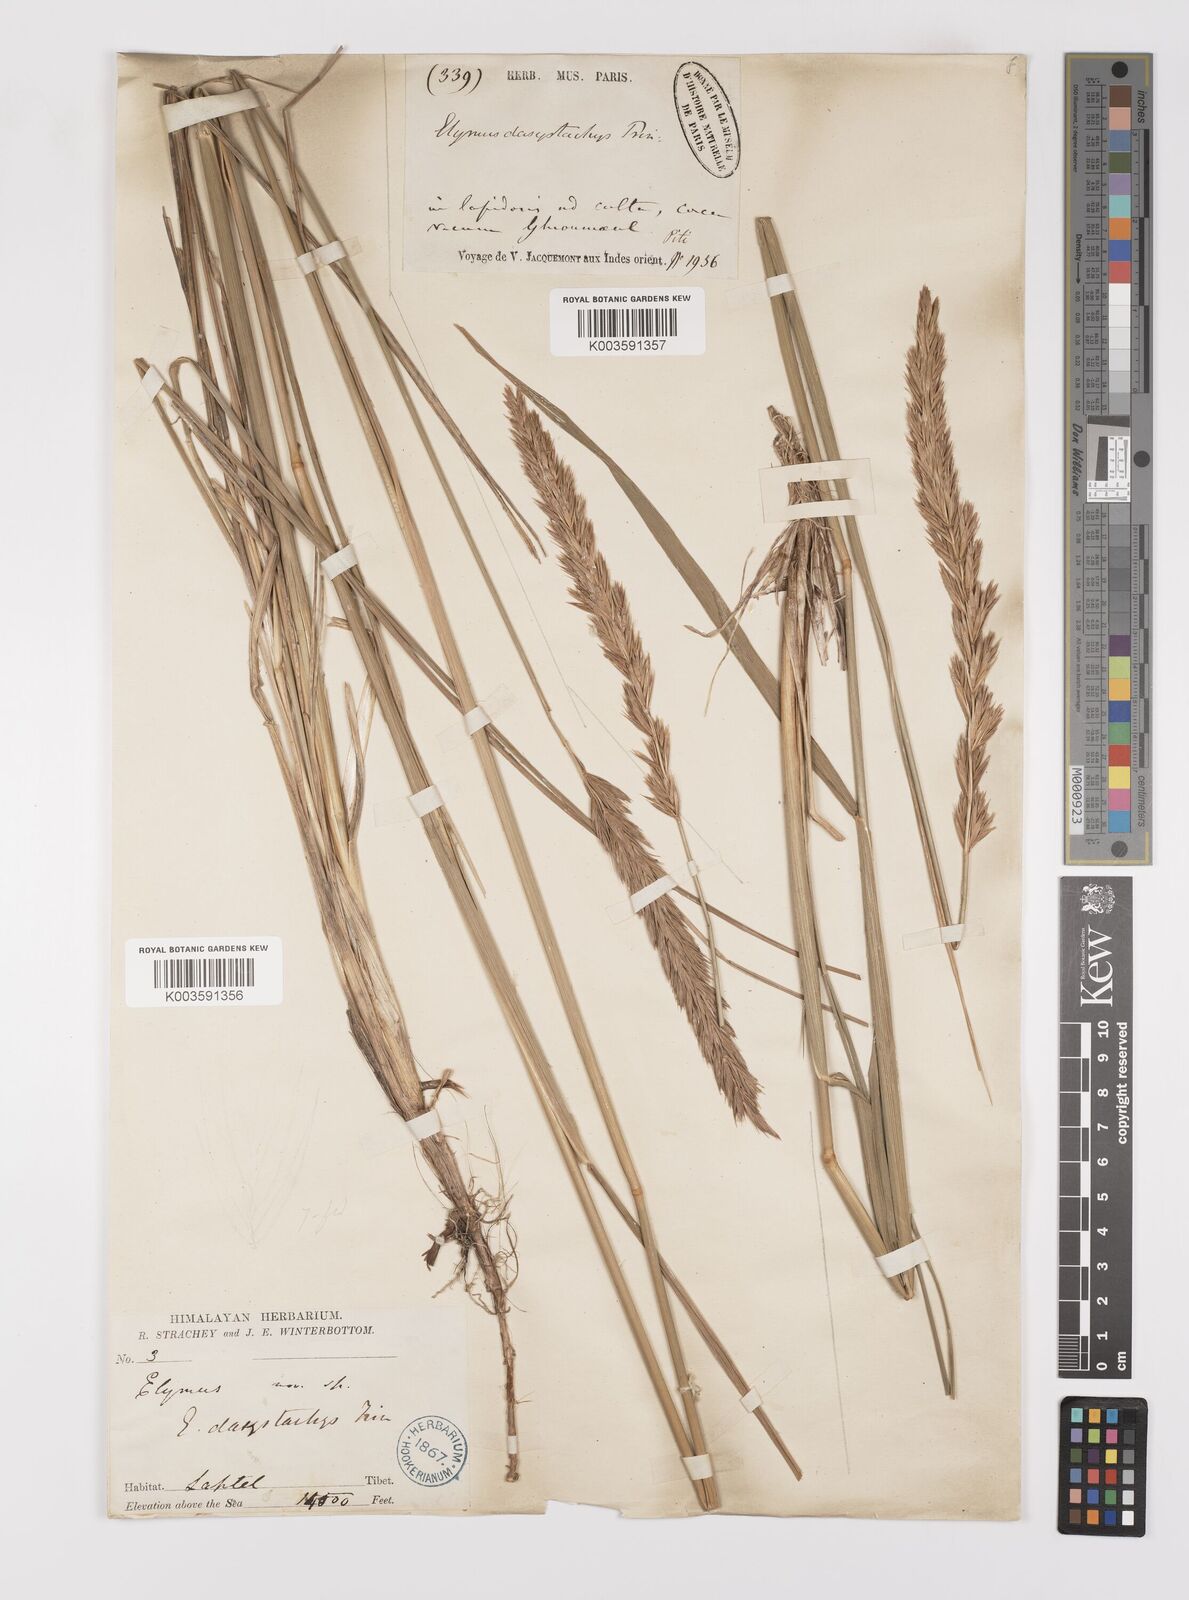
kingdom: Plantae
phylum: Tracheophyta
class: Liliopsida
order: Poales
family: Poaceae
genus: Leymus
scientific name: Leymus secalinus
